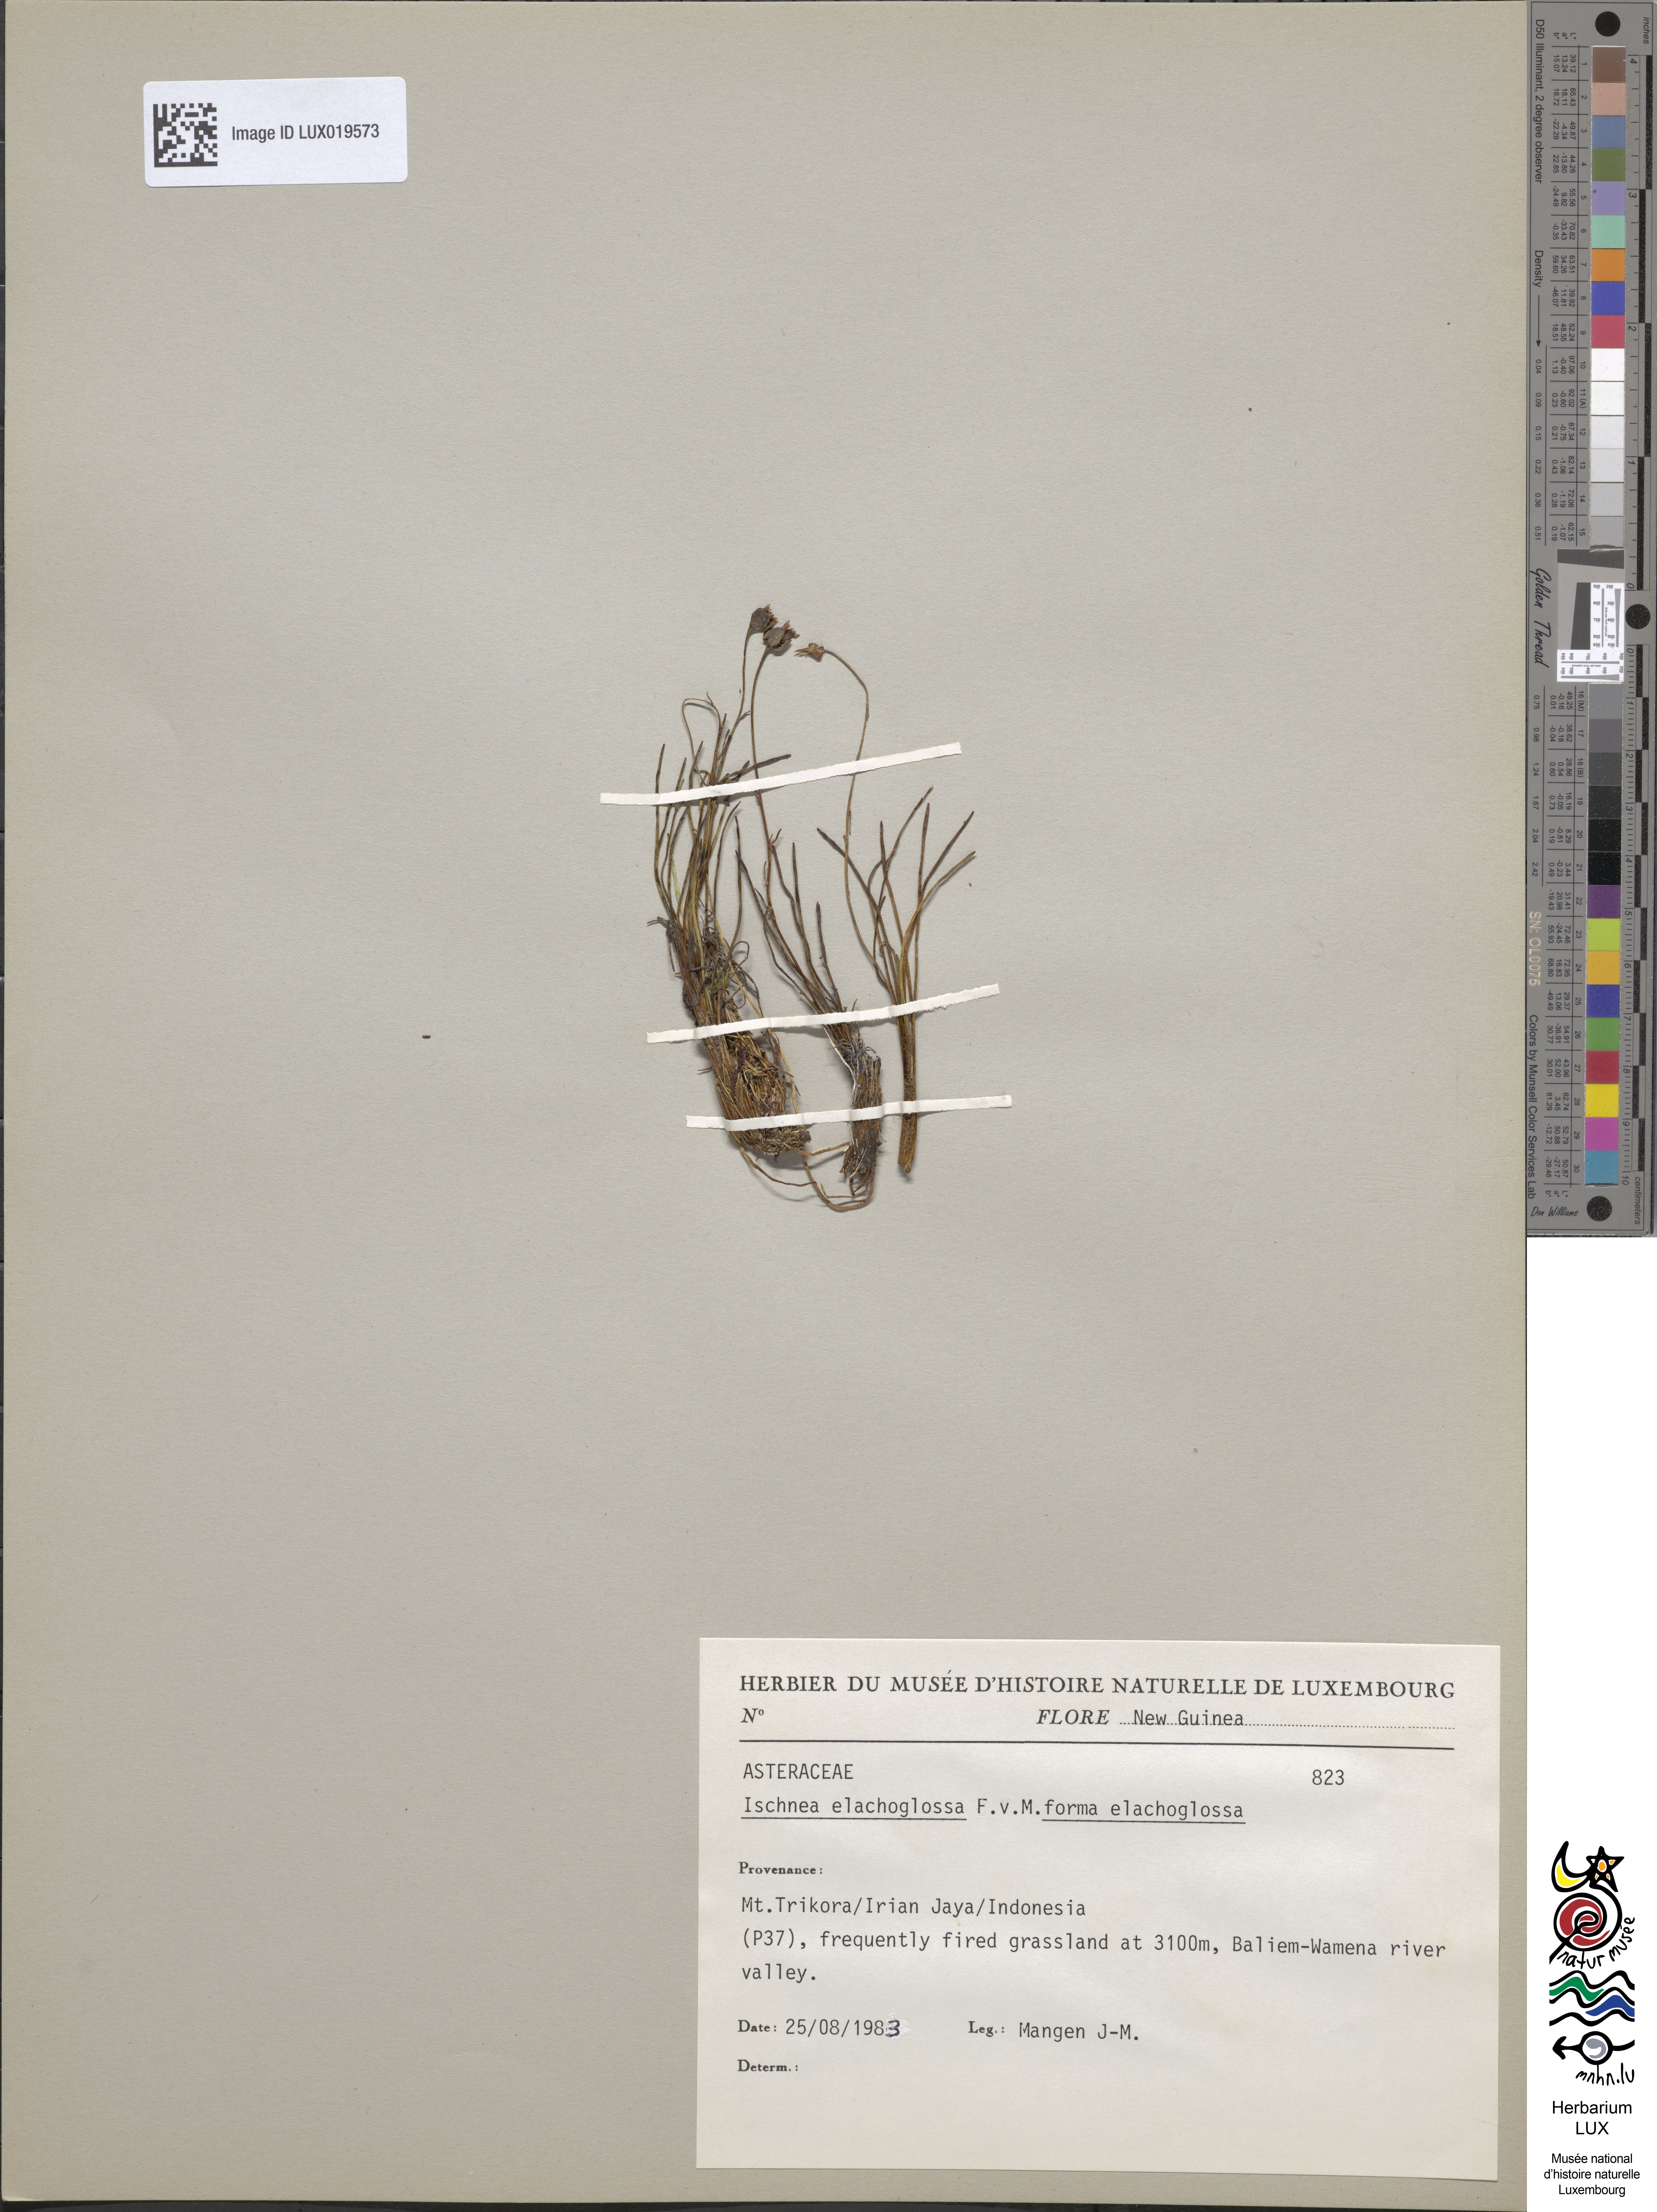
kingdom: Plantae
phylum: Tracheophyta
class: Magnoliopsida
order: Asterales
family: Asteraceae
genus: Ischnea
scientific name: Ischnea elachoglossa
